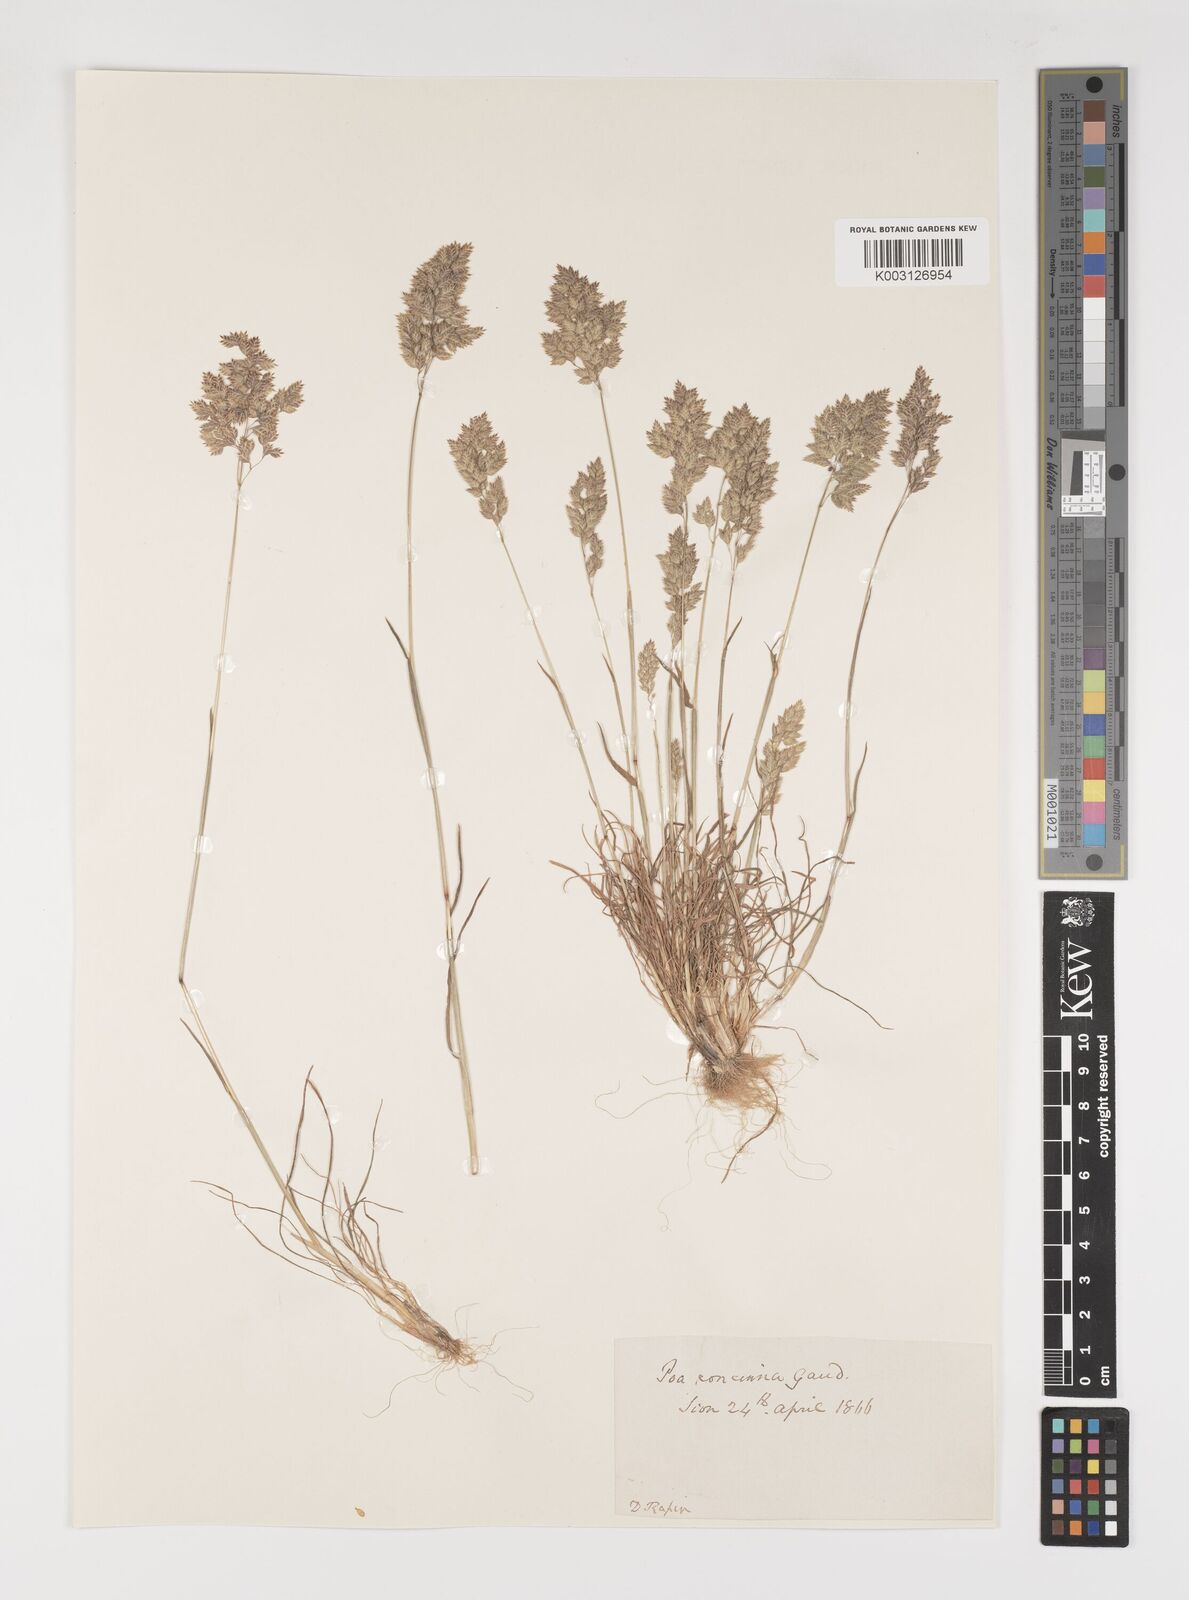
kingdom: Plantae
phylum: Tracheophyta
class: Liliopsida
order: Poales
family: Poaceae
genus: Poa
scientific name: Poa perconcinna
